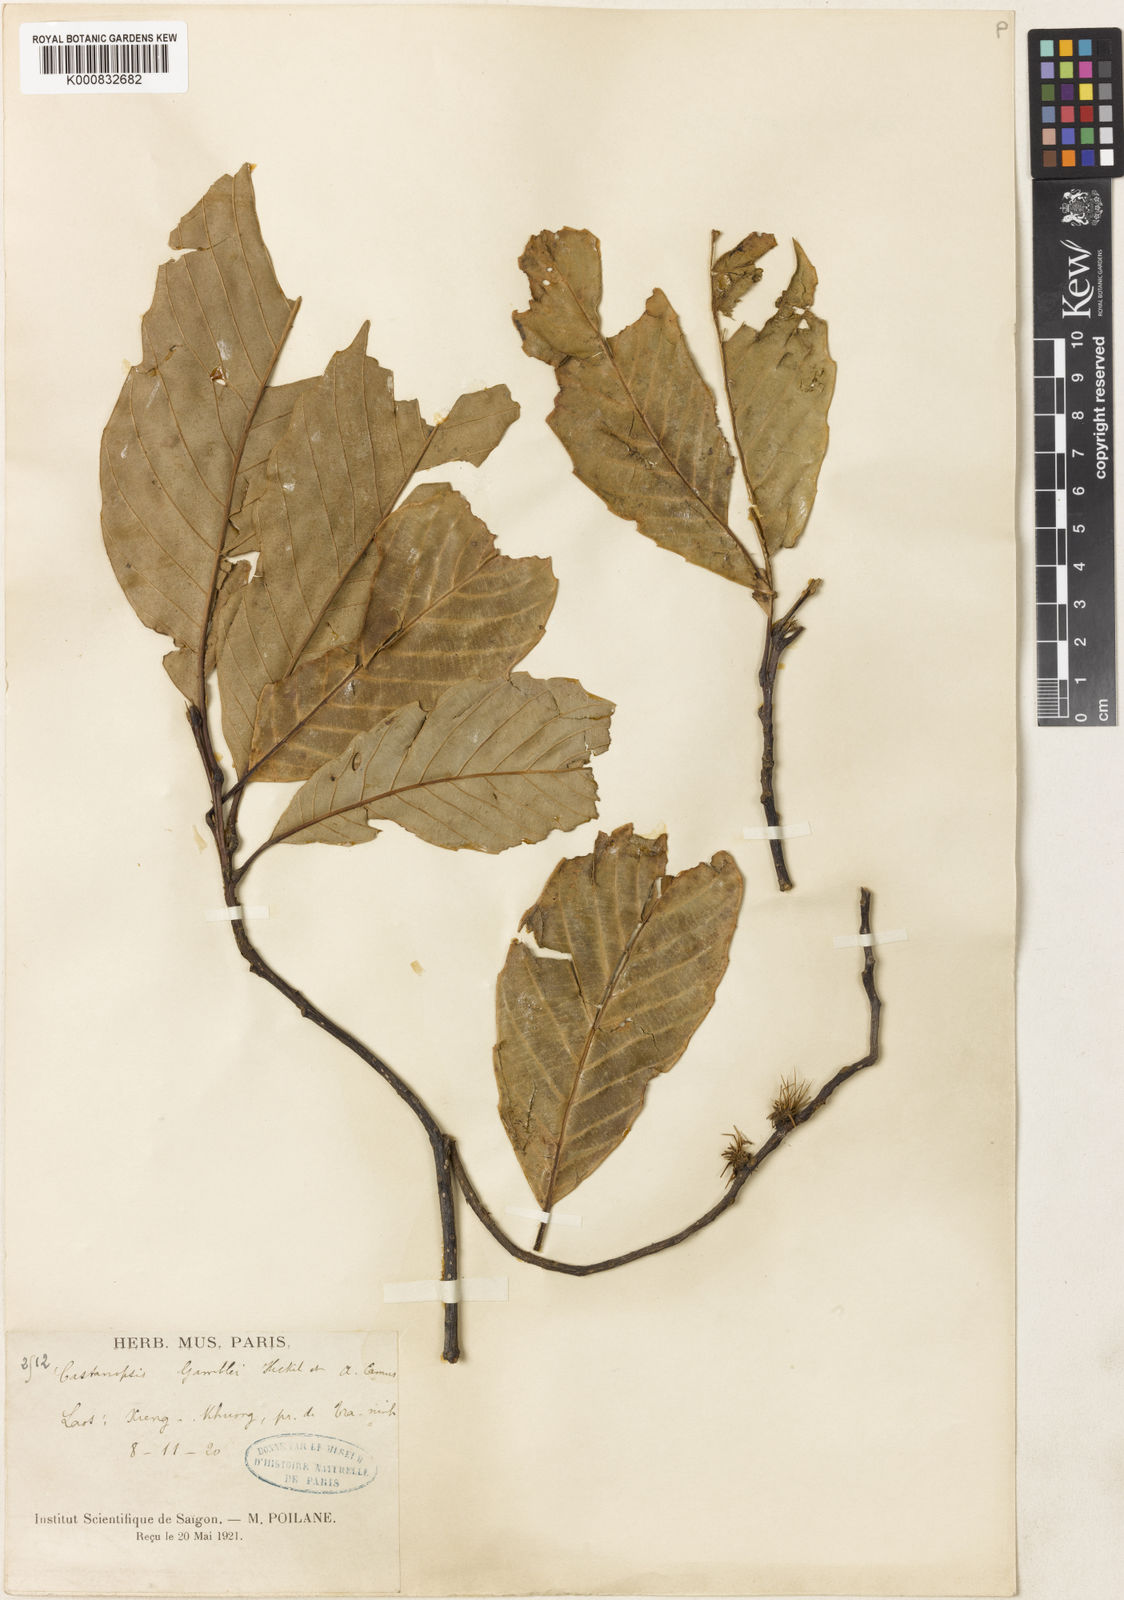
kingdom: Plantae
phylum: Tracheophyta
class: Magnoliopsida
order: Fagales
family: Fagaceae
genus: Castanopsis
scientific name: Castanopsis gamblei
